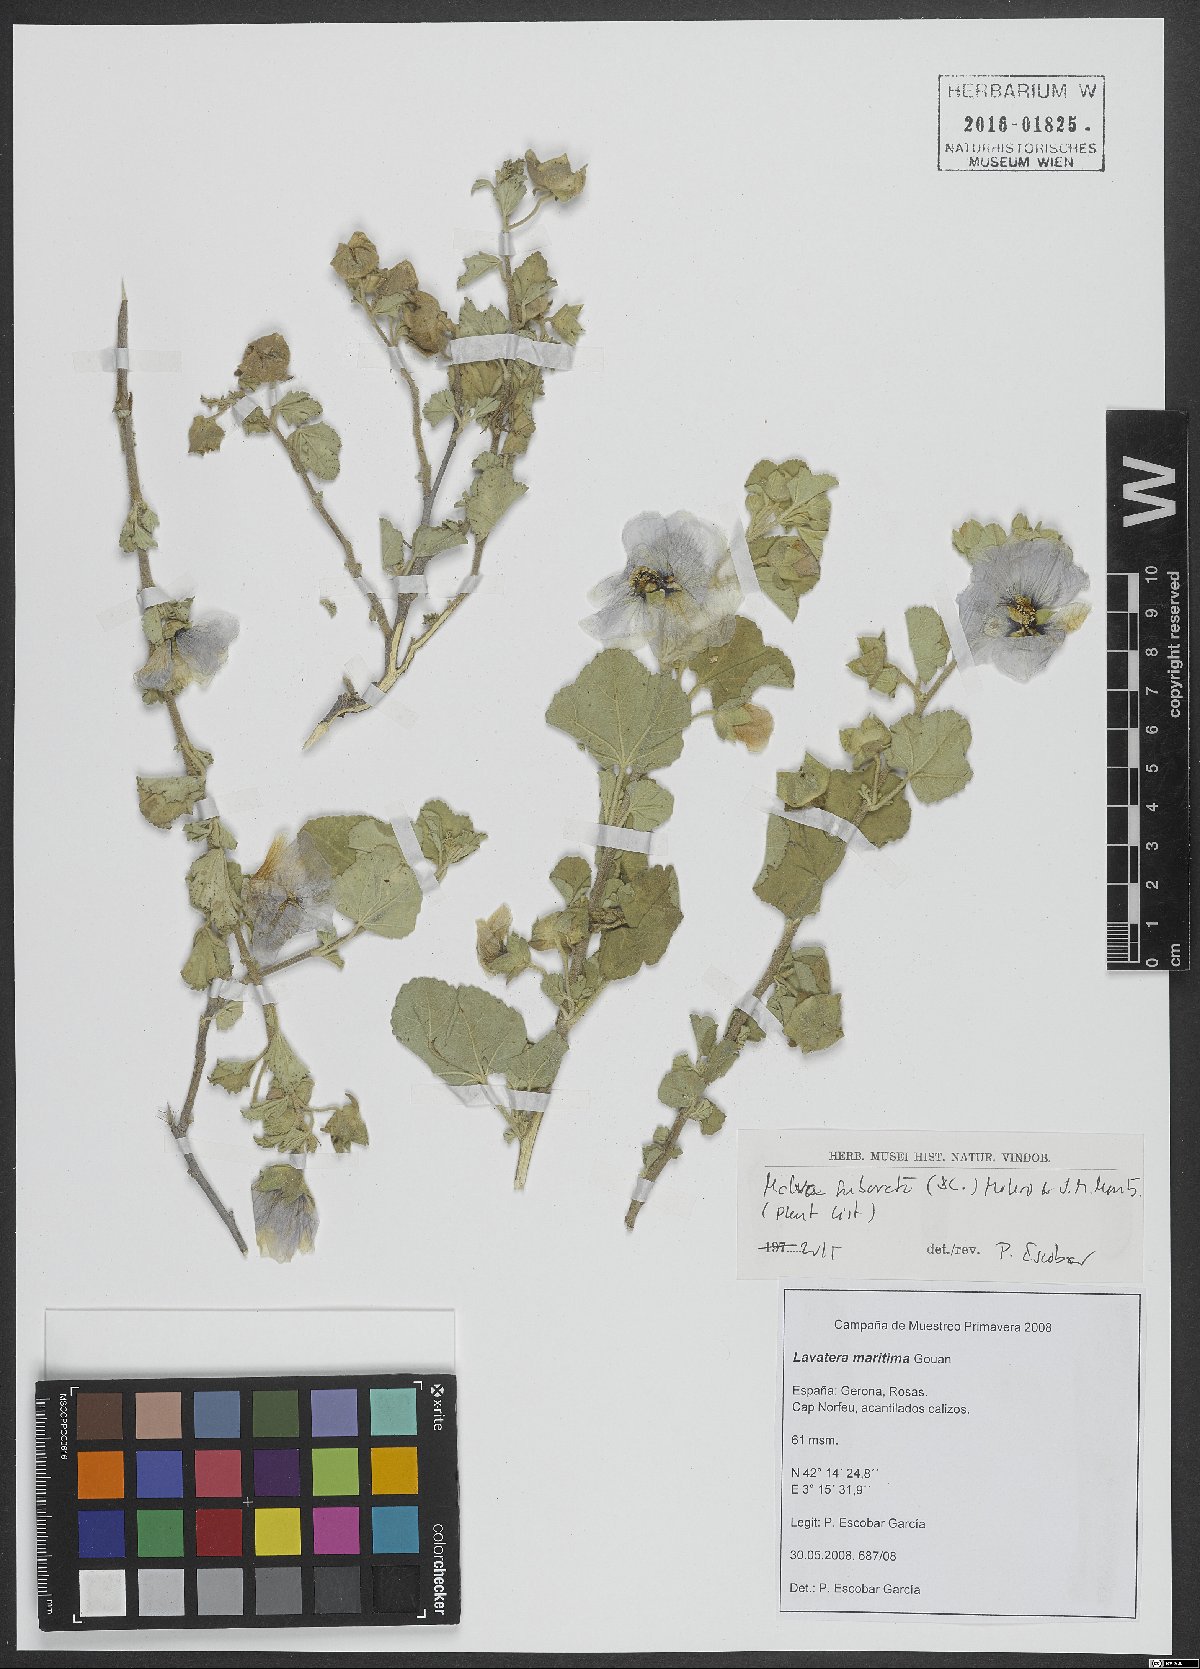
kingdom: Plantae
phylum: Tracheophyta
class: Magnoliopsida
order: Malvales
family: Malvaceae
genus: Malva
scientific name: Malva subovata
